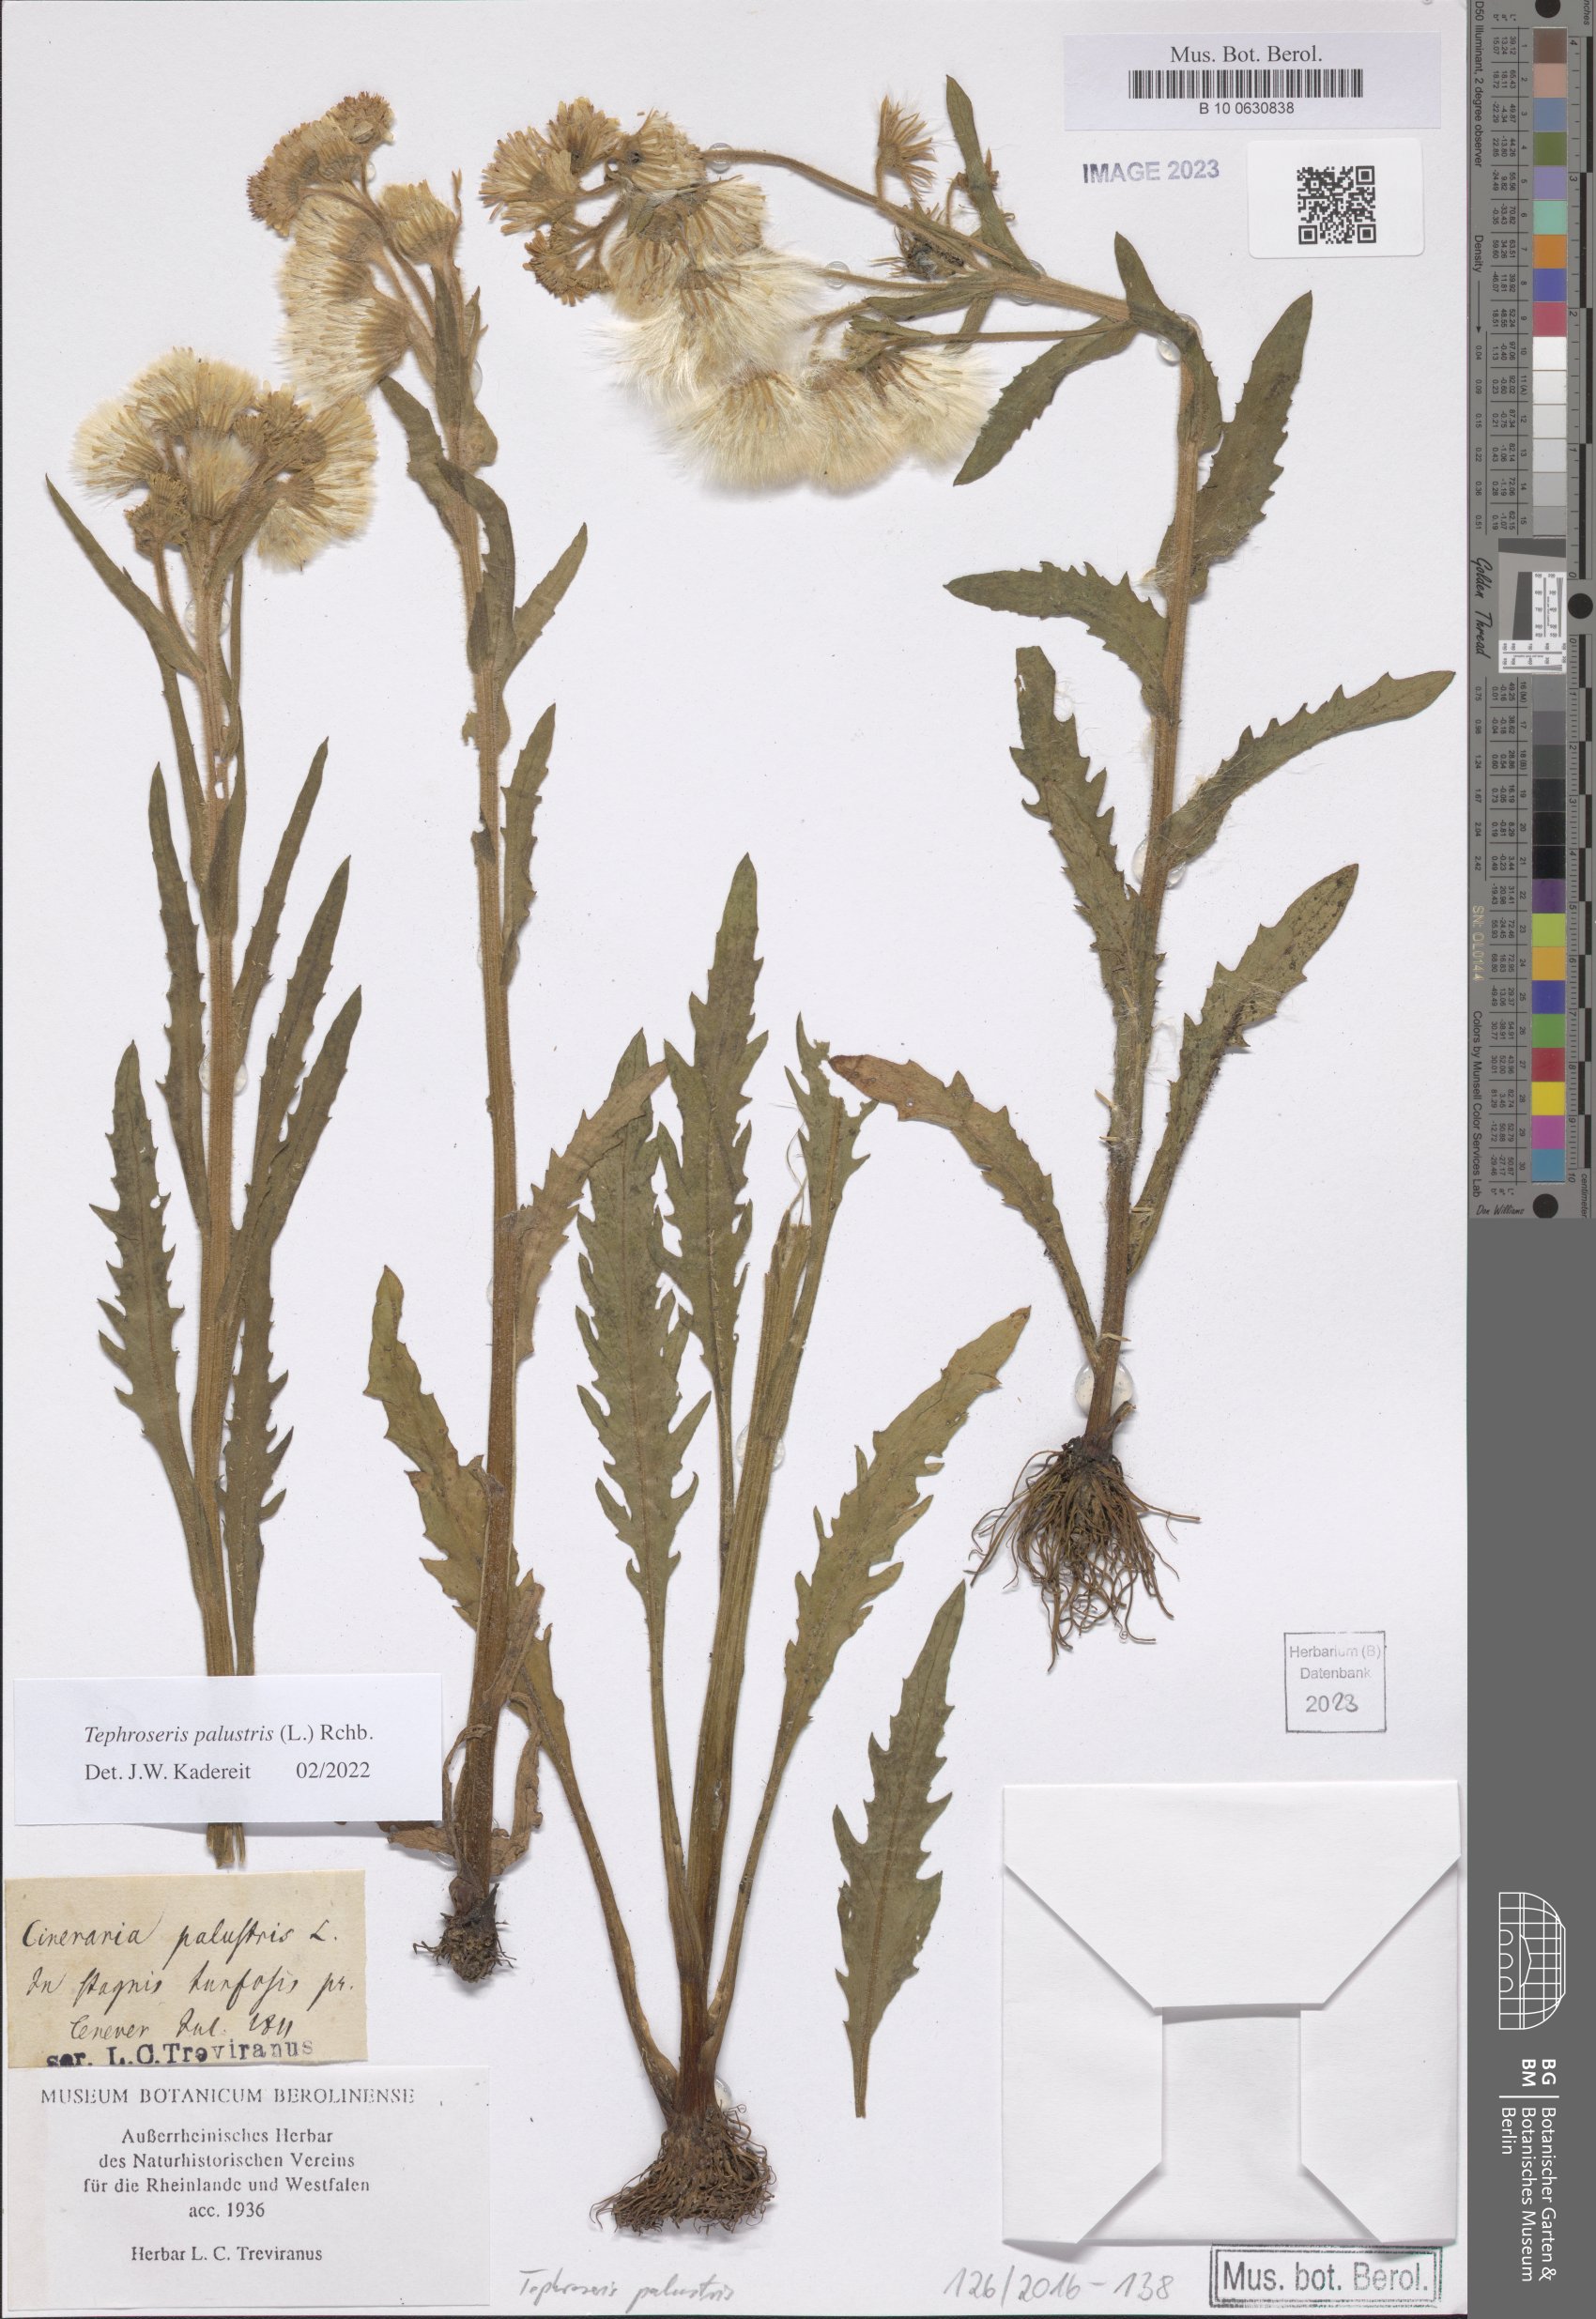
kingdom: Plantae
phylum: Tracheophyta
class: Magnoliopsida
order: Asterales
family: Asteraceae
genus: Tephroseris
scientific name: Tephroseris palustris
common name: Marsh fleawort
